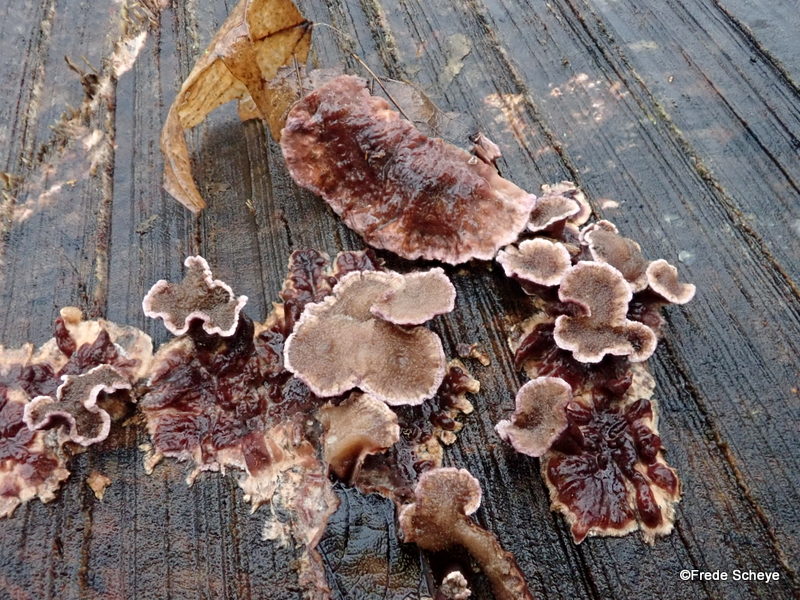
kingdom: Fungi
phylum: Basidiomycota
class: Agaricomycetes
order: Agaricales
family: Cyphellaceae
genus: Chondrostereum
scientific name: Chondrostereum purpureum
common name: purpurlædersvamp
